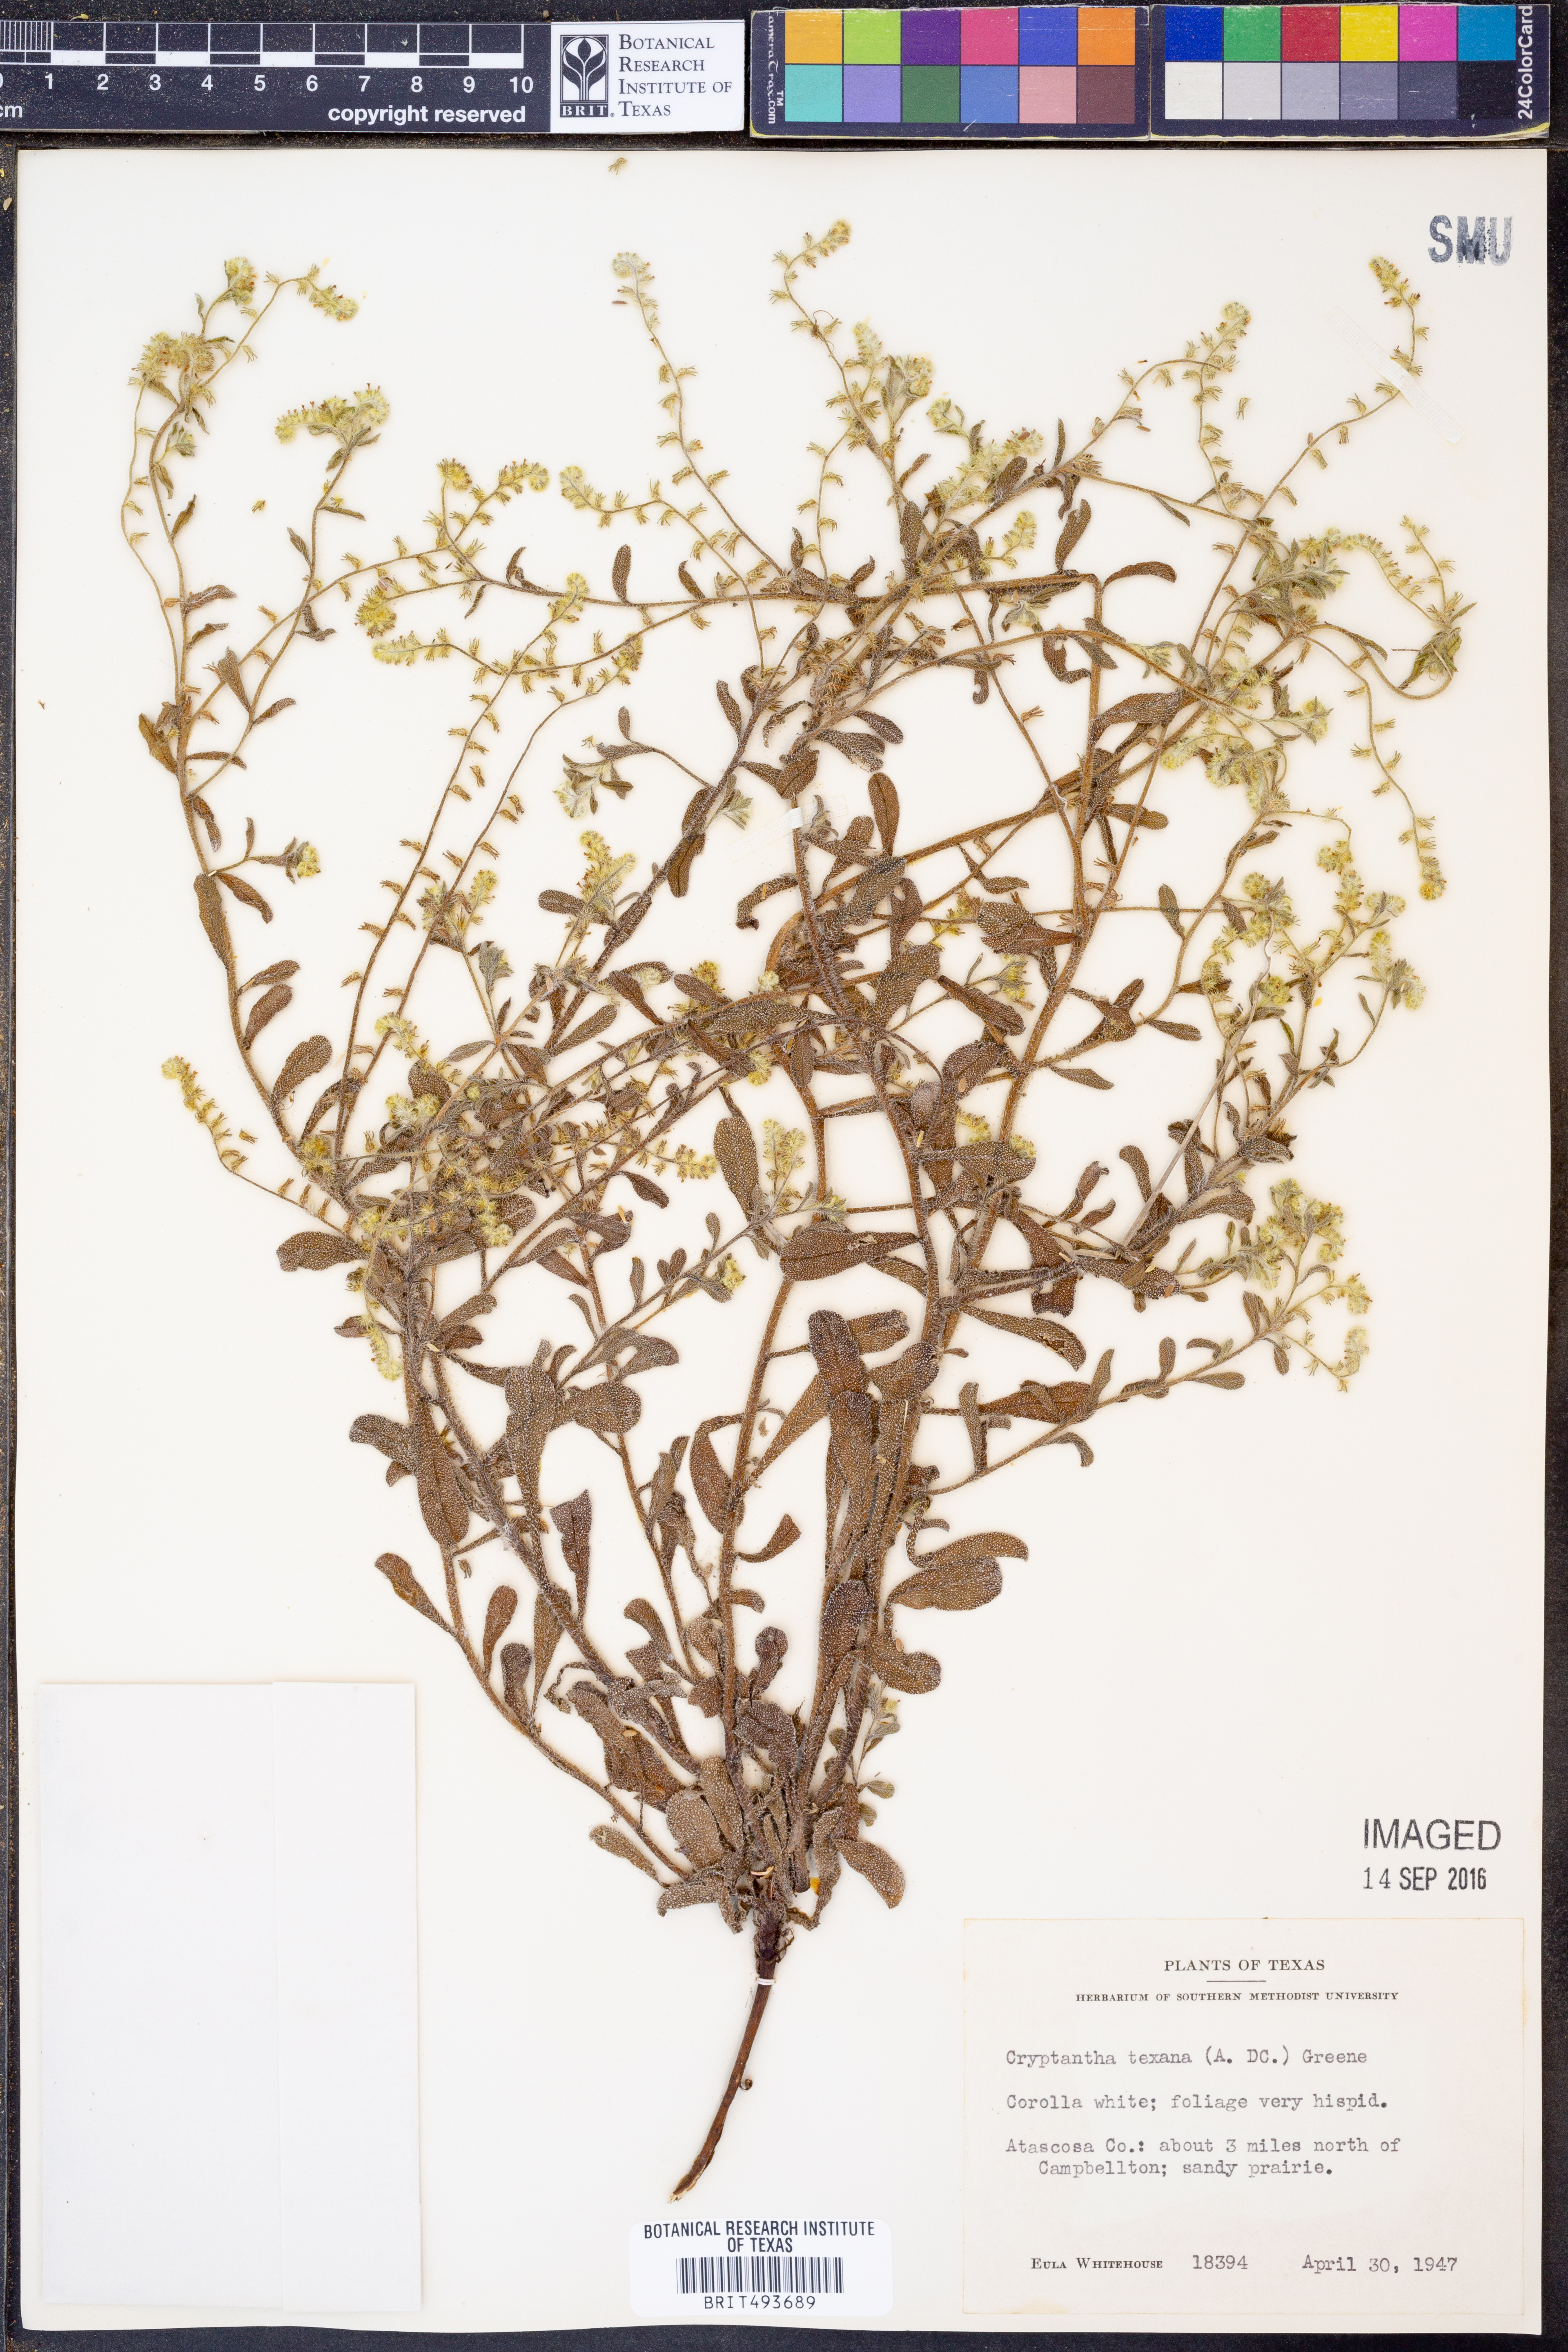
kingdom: Plantae
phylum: Tracheophyta
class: Magnoliopsida
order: Boraginales
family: Boraginaceae
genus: Cryptantha
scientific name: Cryptantha texana
